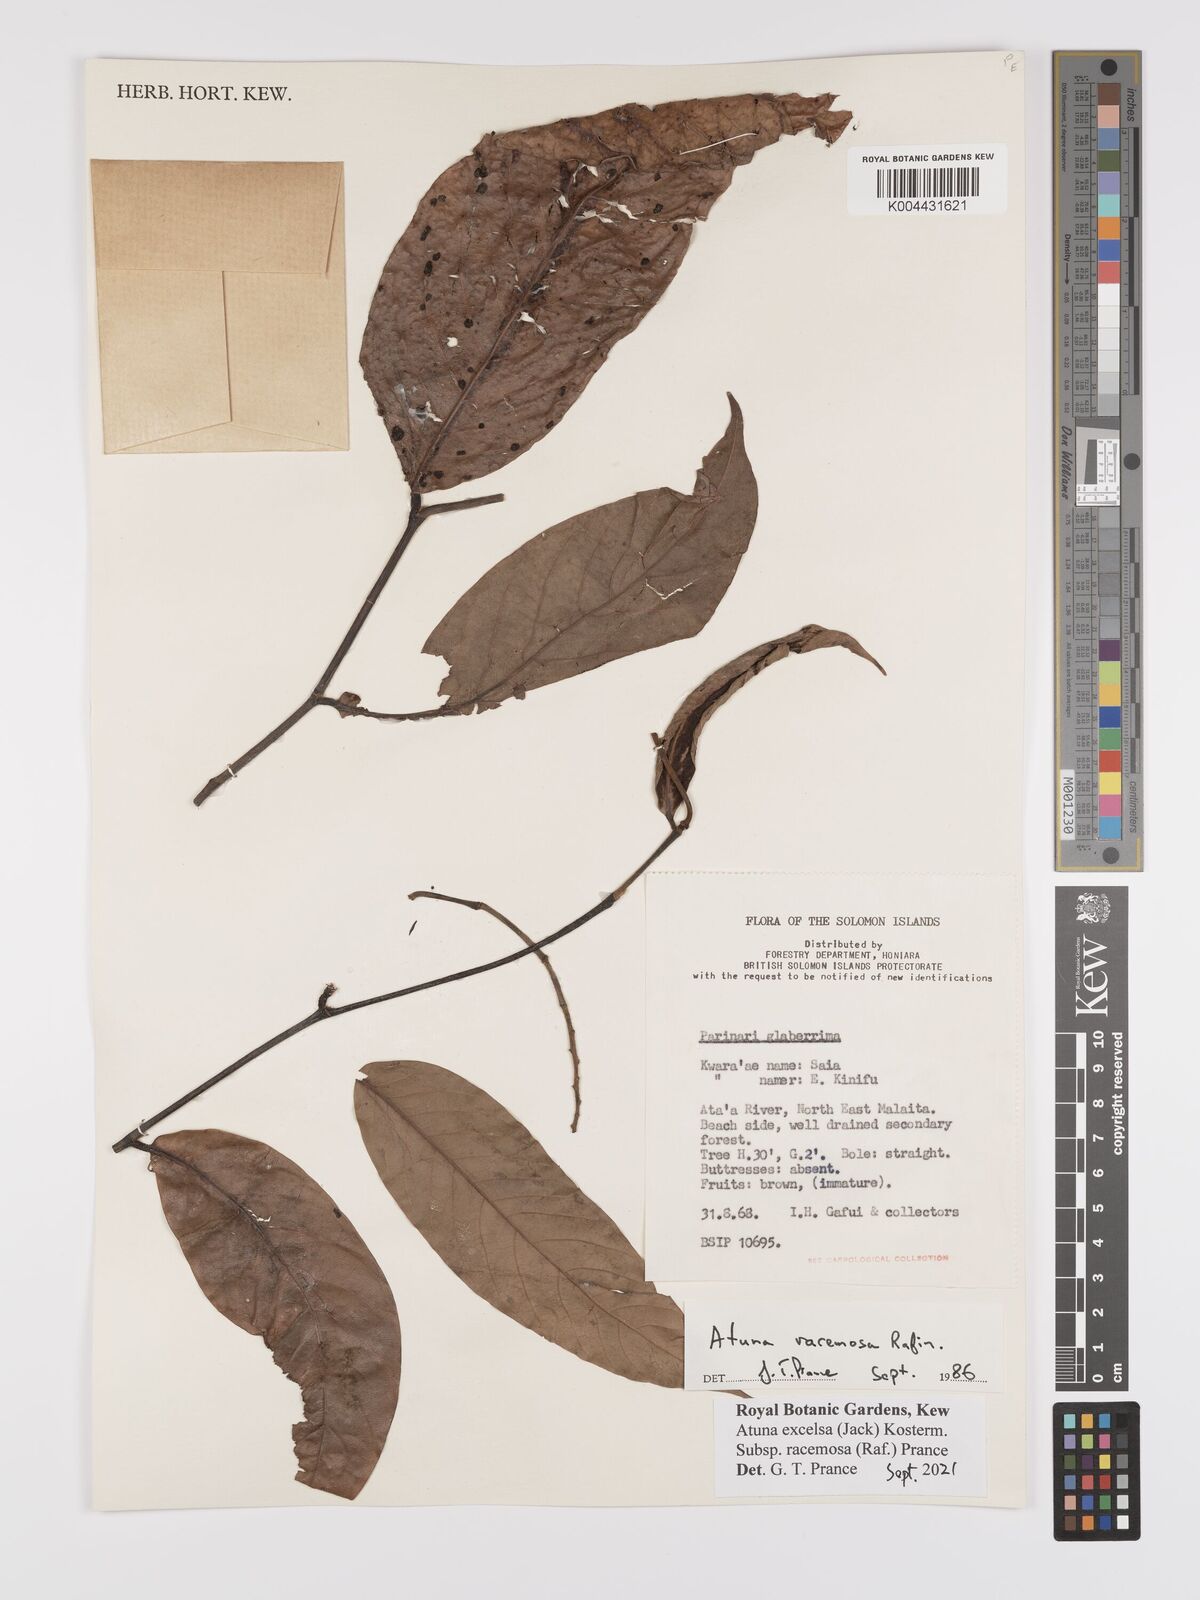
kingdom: Plantae
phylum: Tracheophyta
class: Magnoliopsida
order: Malpighiales
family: Chrysobalanaceae
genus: Atuna
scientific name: Atuna excelsa
